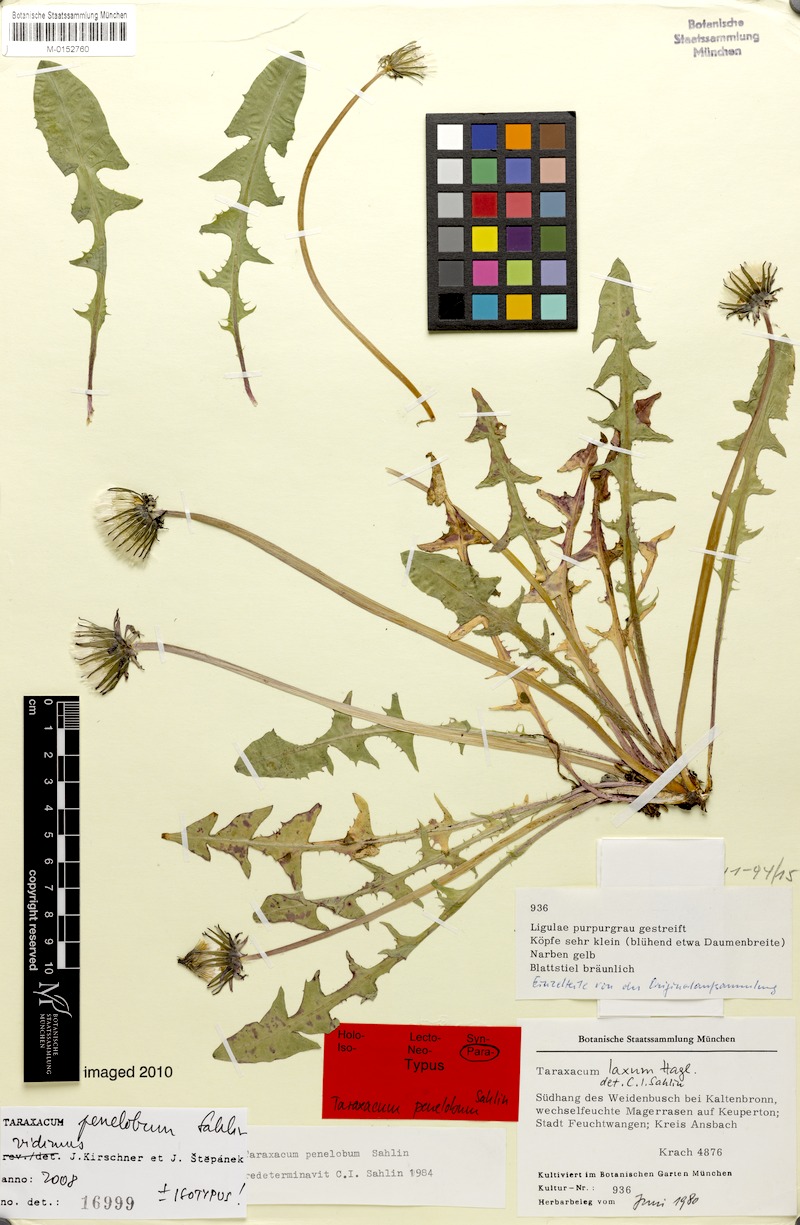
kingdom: Plantae
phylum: Tracheophyta
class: Magnoliopsida
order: Asterales
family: Asteraceae
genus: Taraxacum
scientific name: Taraxacum penelobum
